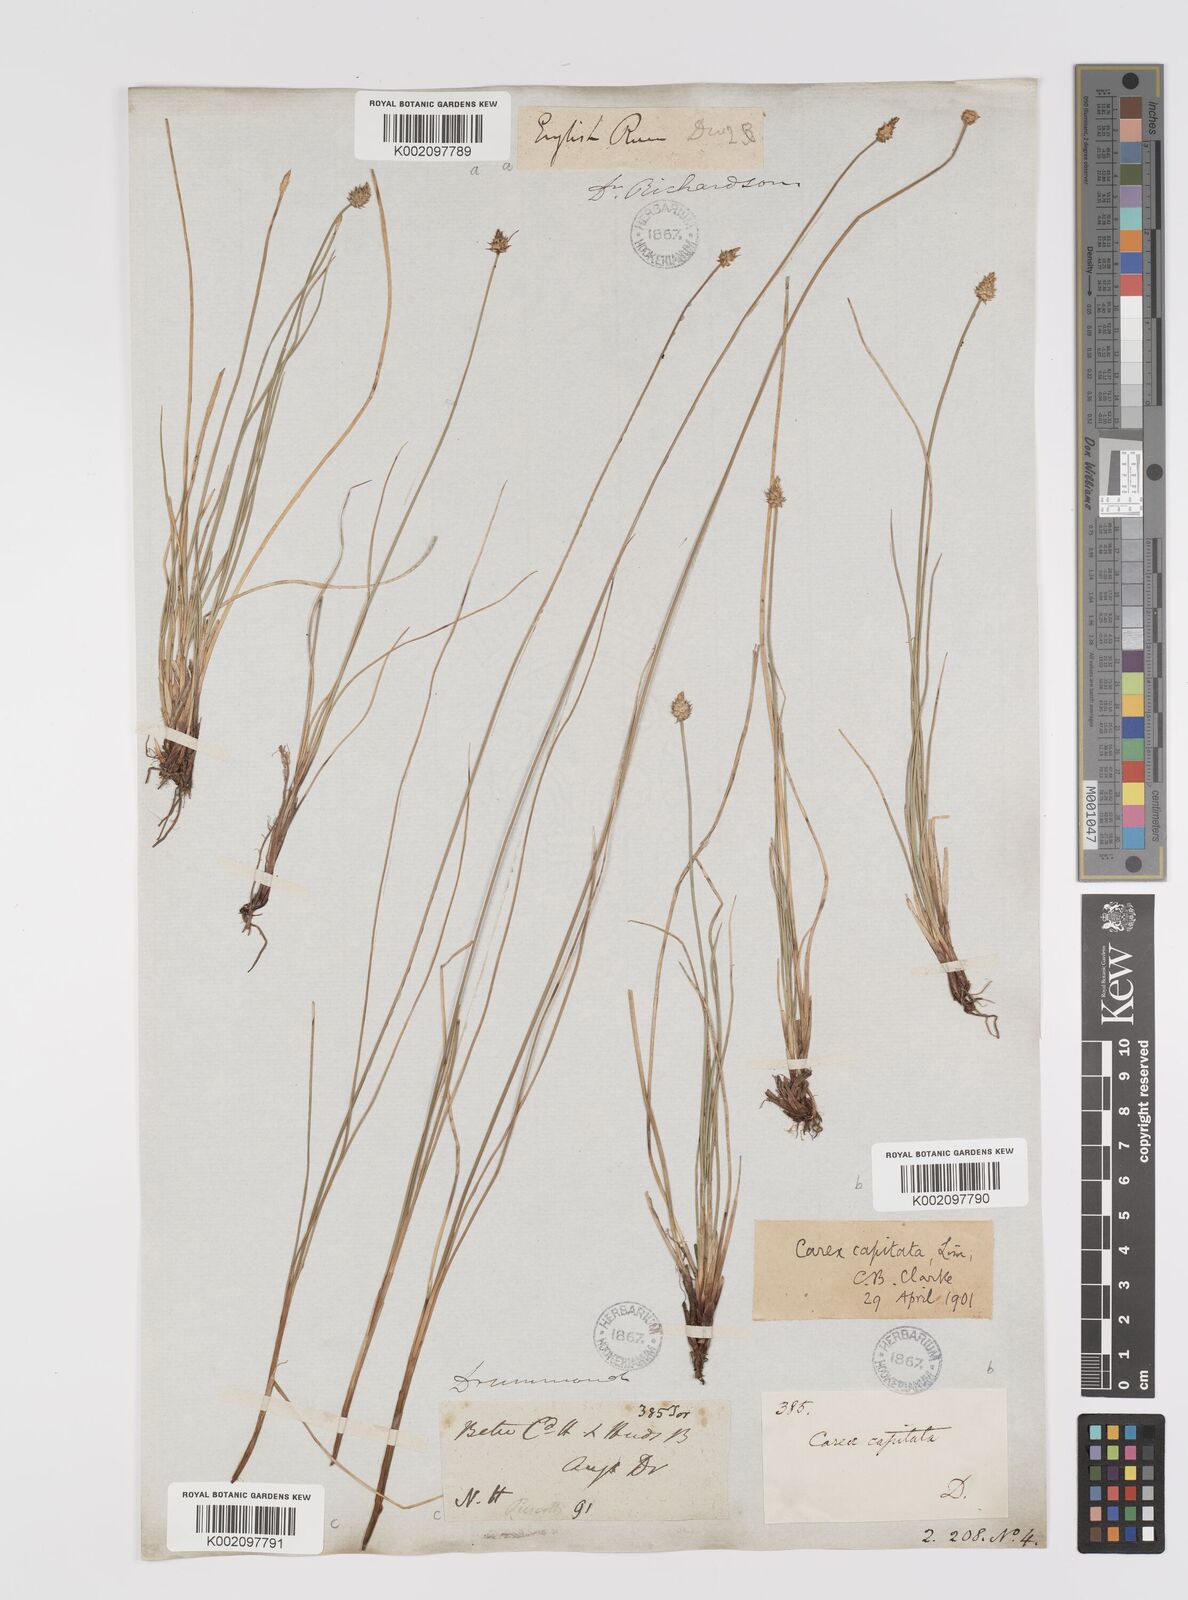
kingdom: Plantae
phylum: Tracheophyta
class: Liliopsida
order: Poales
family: Cyperaceae
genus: Carex
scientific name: Carex capitata
